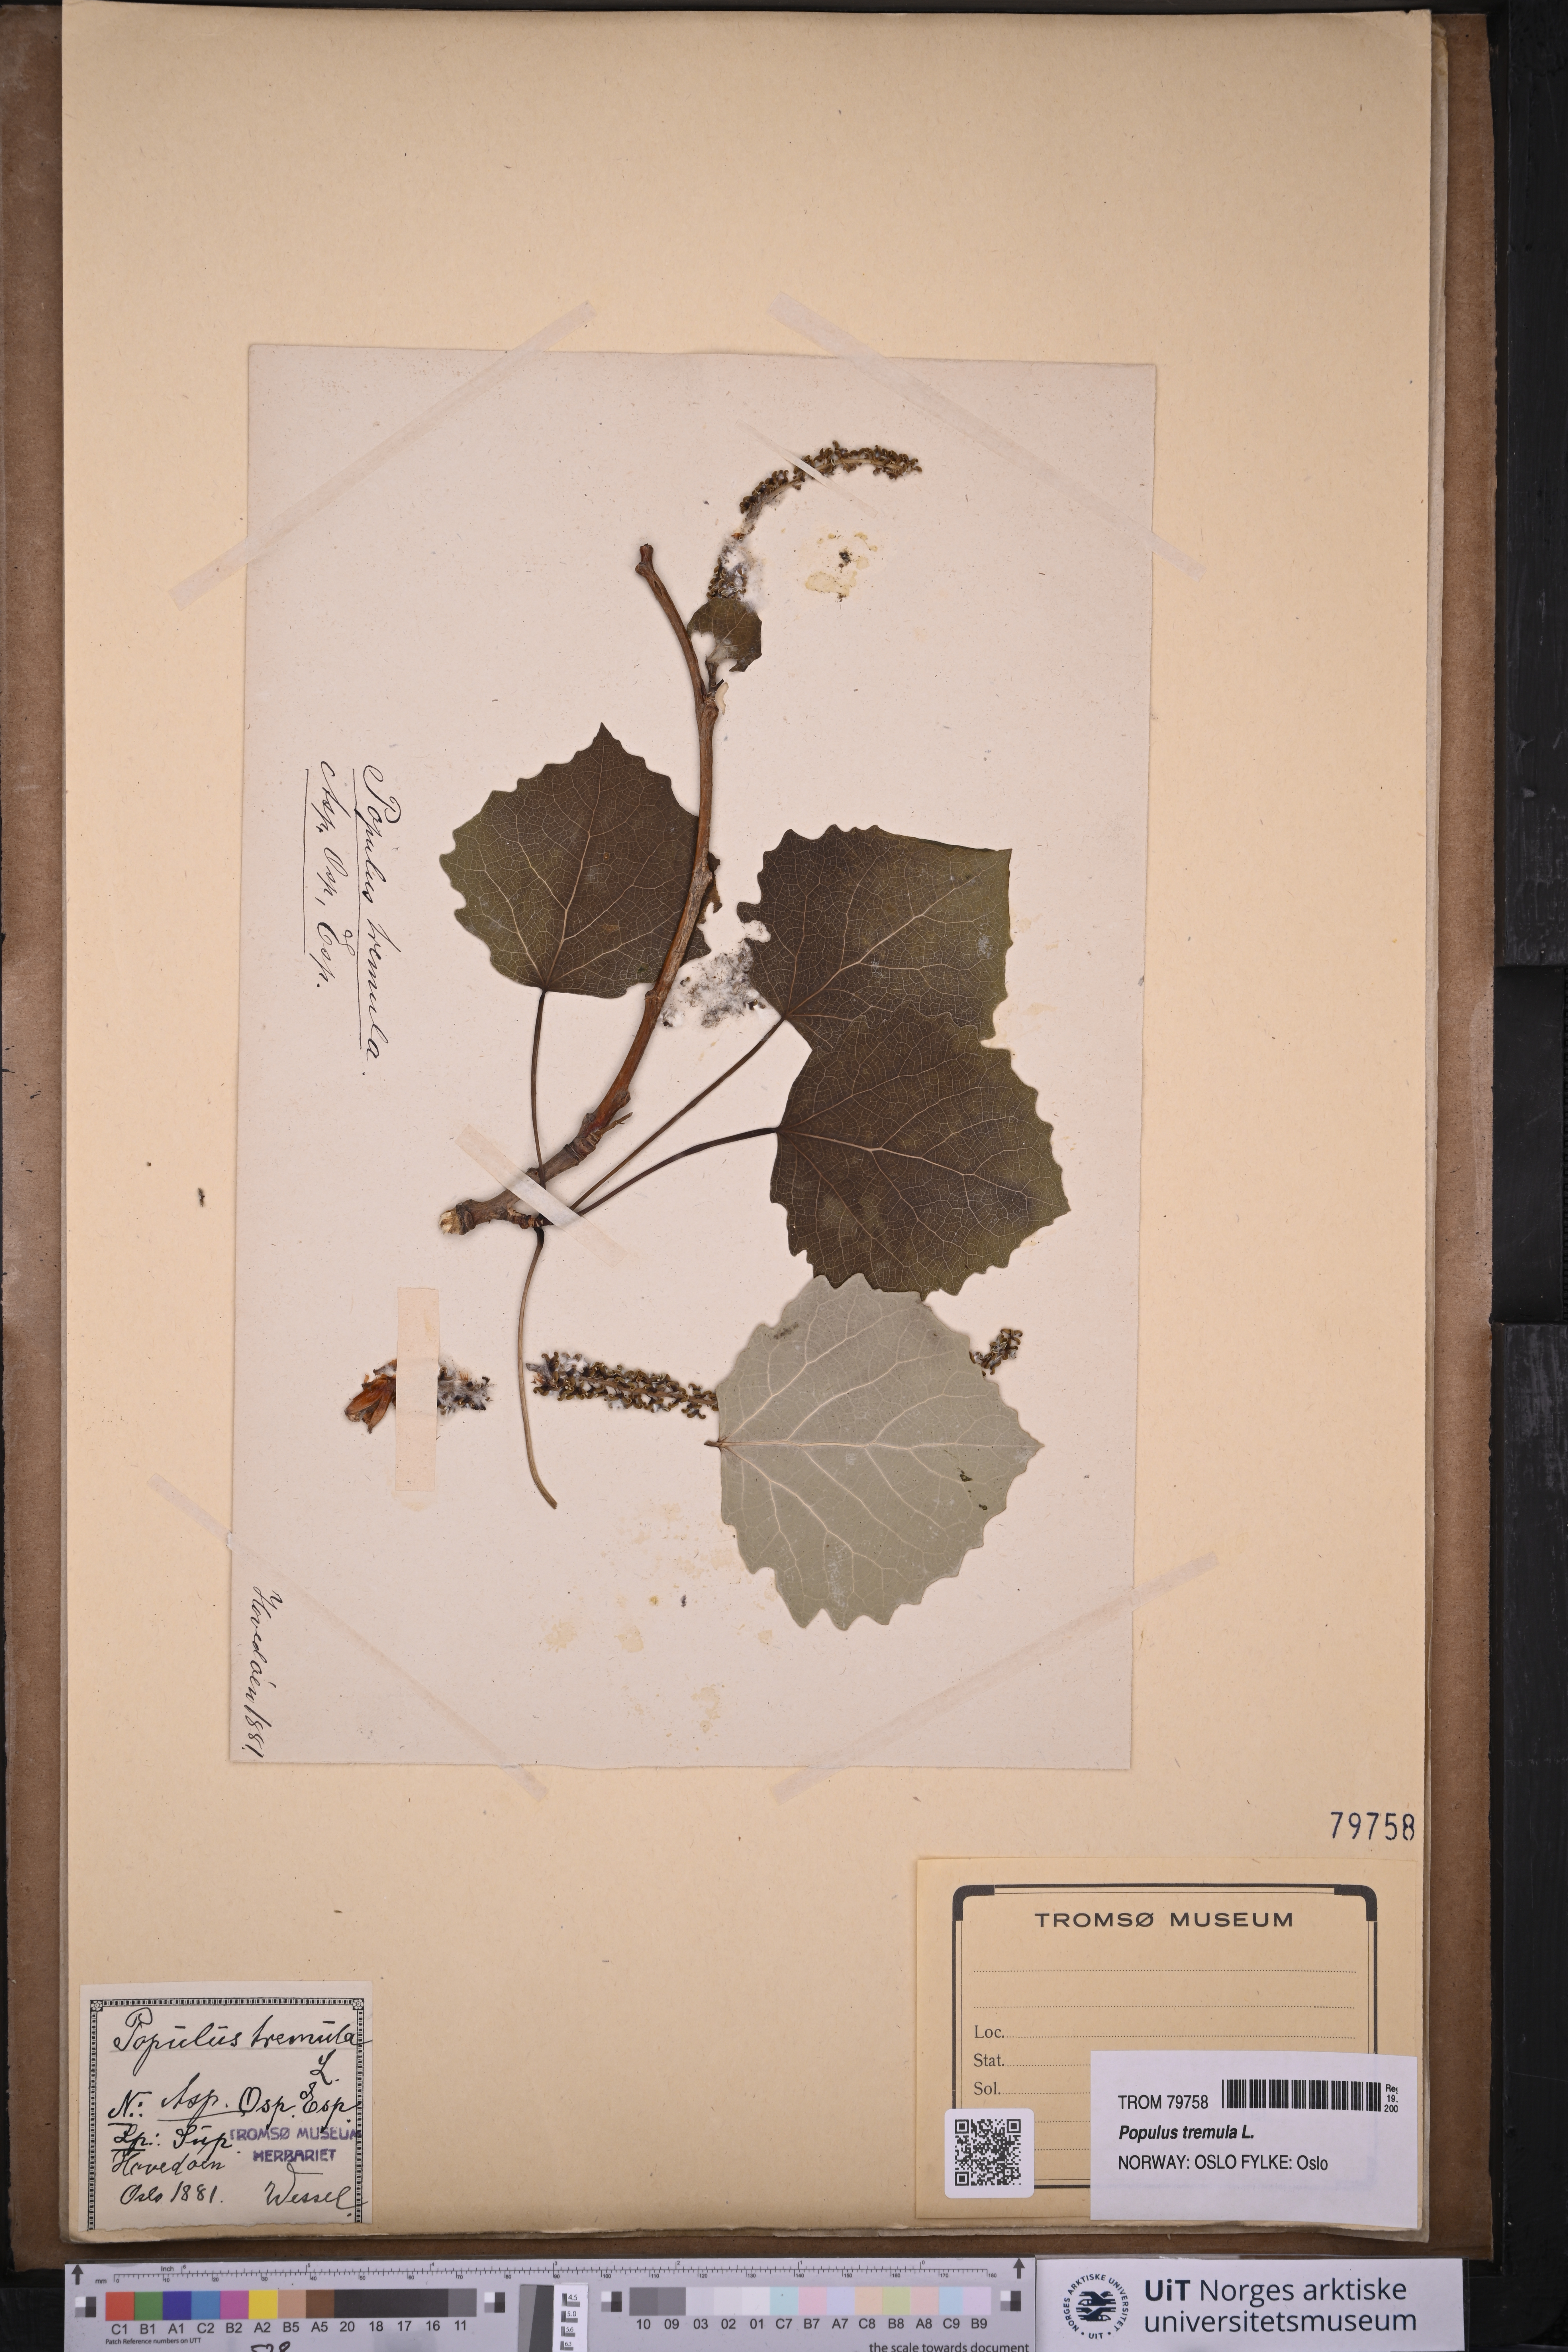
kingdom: Plantae
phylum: Tracheophyta
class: Magnoliopsida
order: Malpighiales
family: Salicaceae
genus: Populus
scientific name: Populus tremula
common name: European aspen
